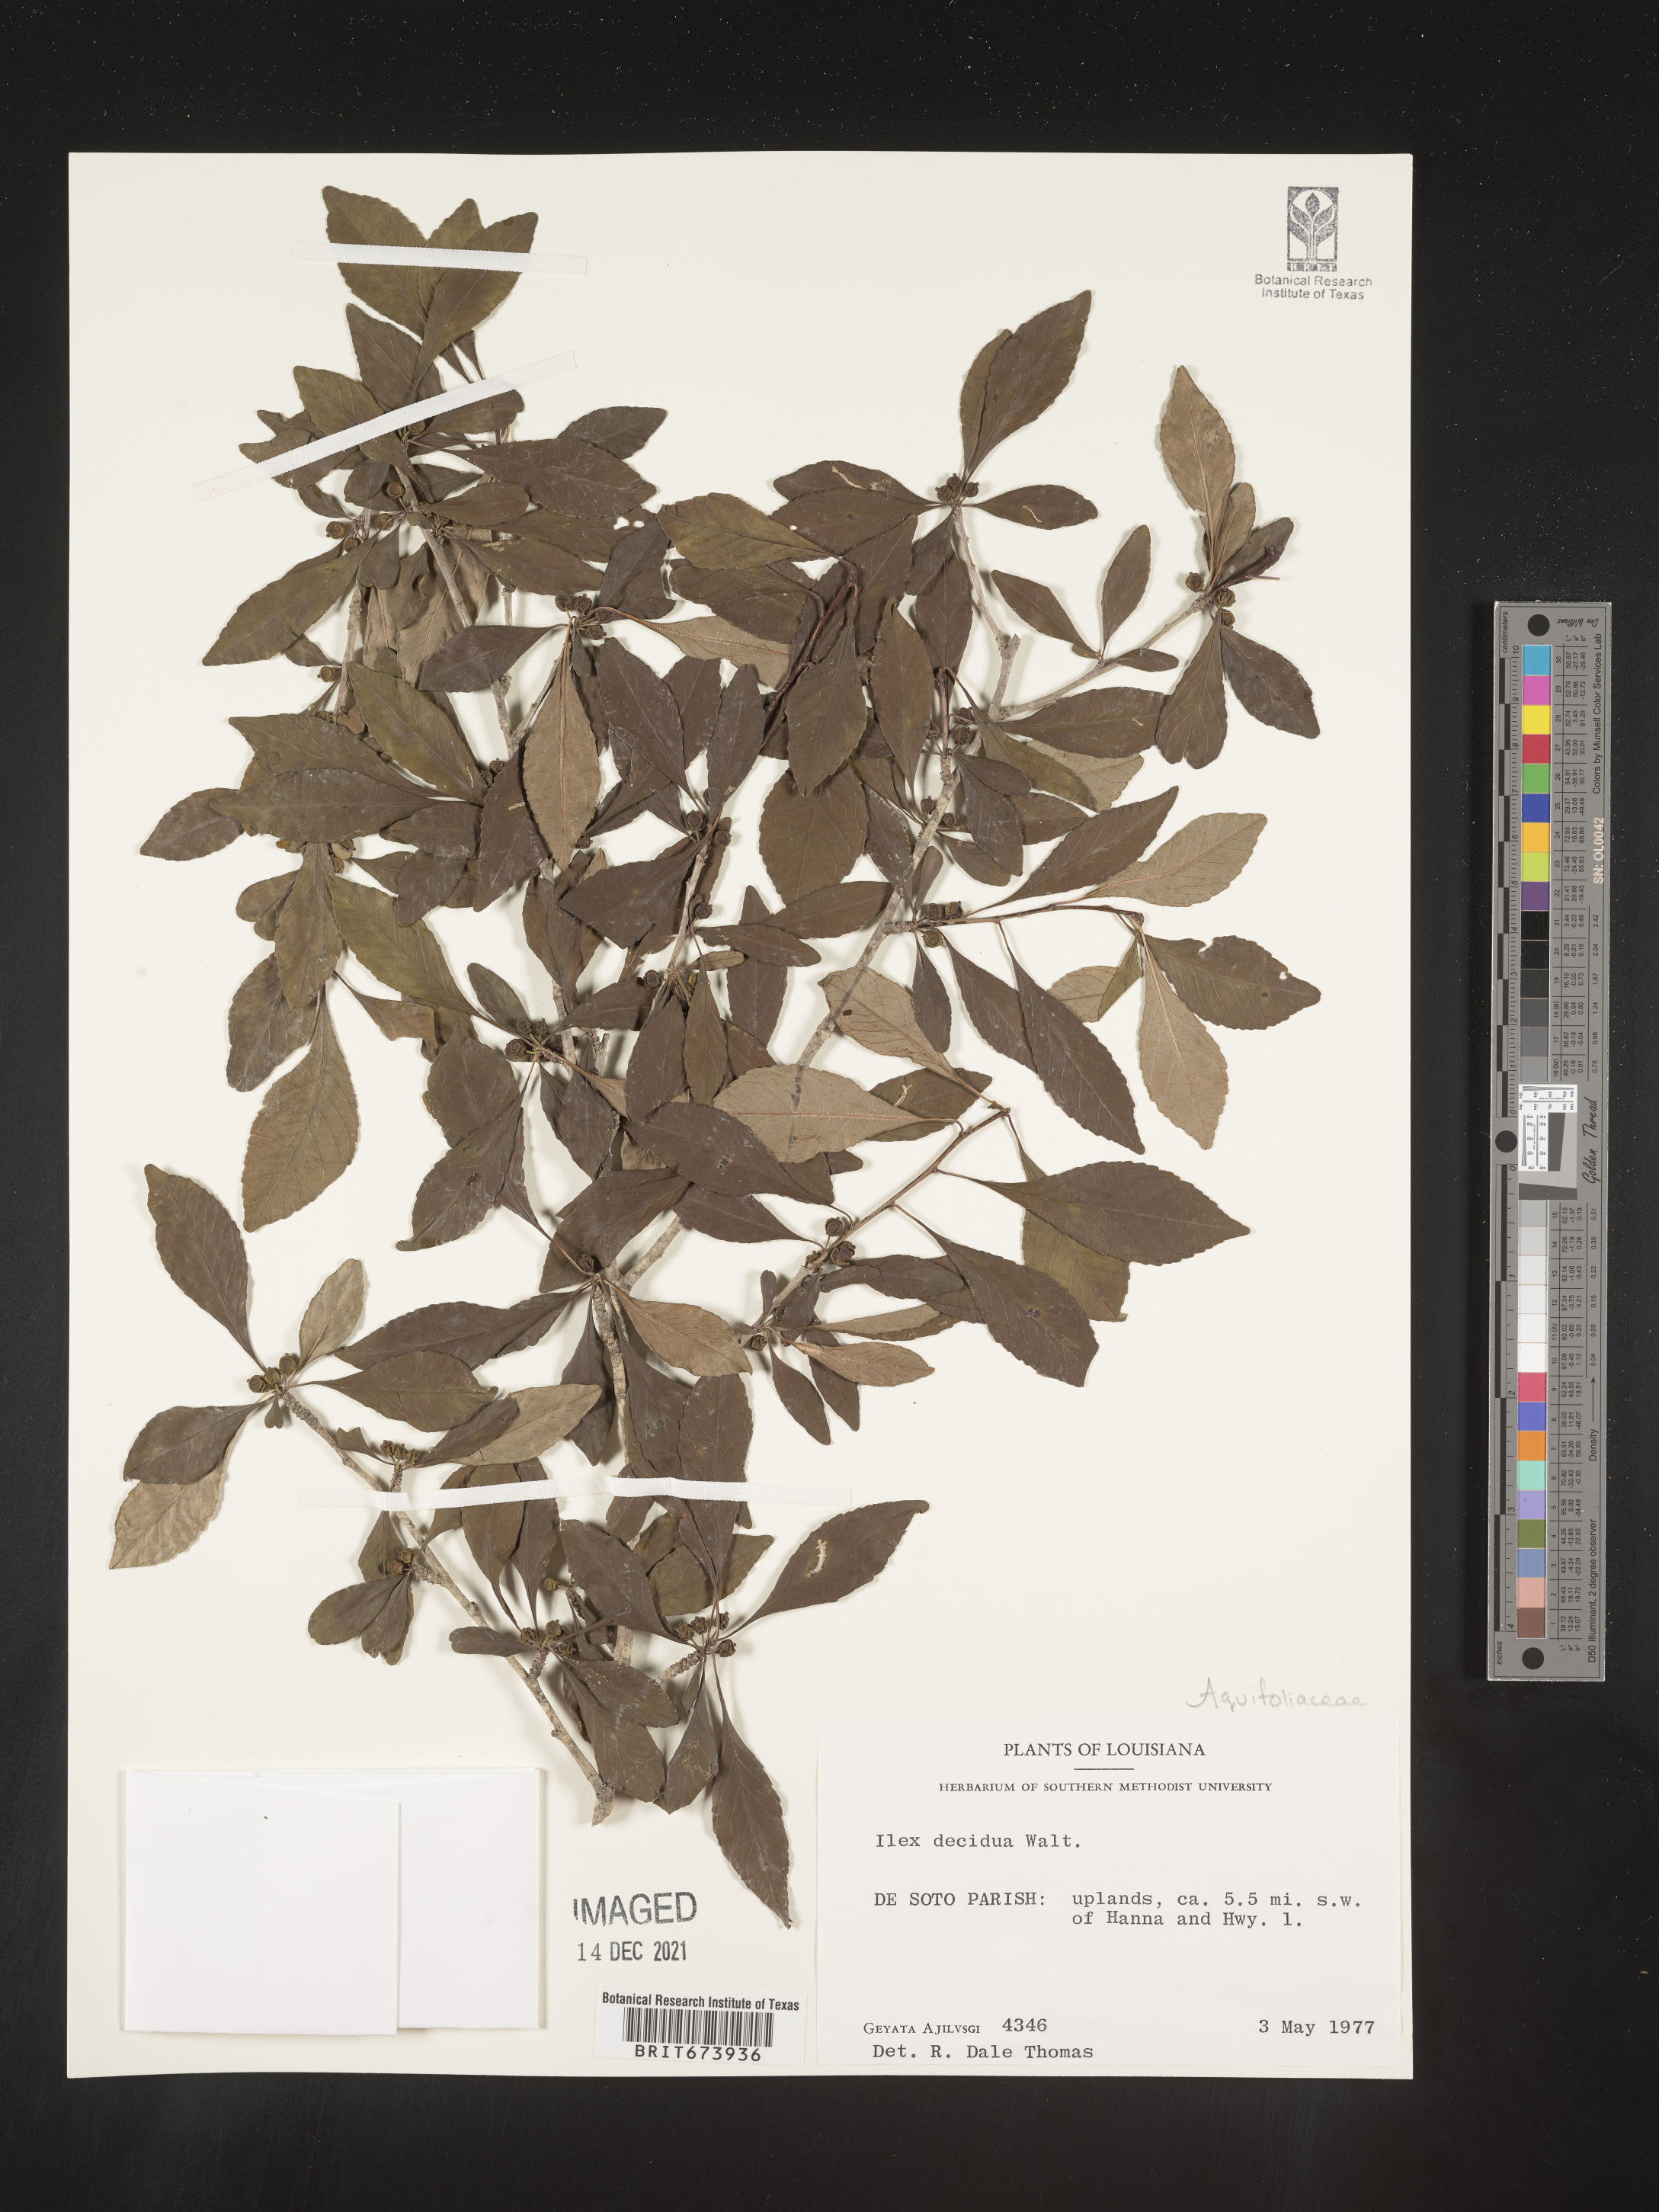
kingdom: Plantae
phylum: Tracheophyta
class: Magnoliopsida
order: Aquifoliales
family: Aquifoliaceae
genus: Ilex
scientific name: Ilex decidua
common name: Possum-haw
